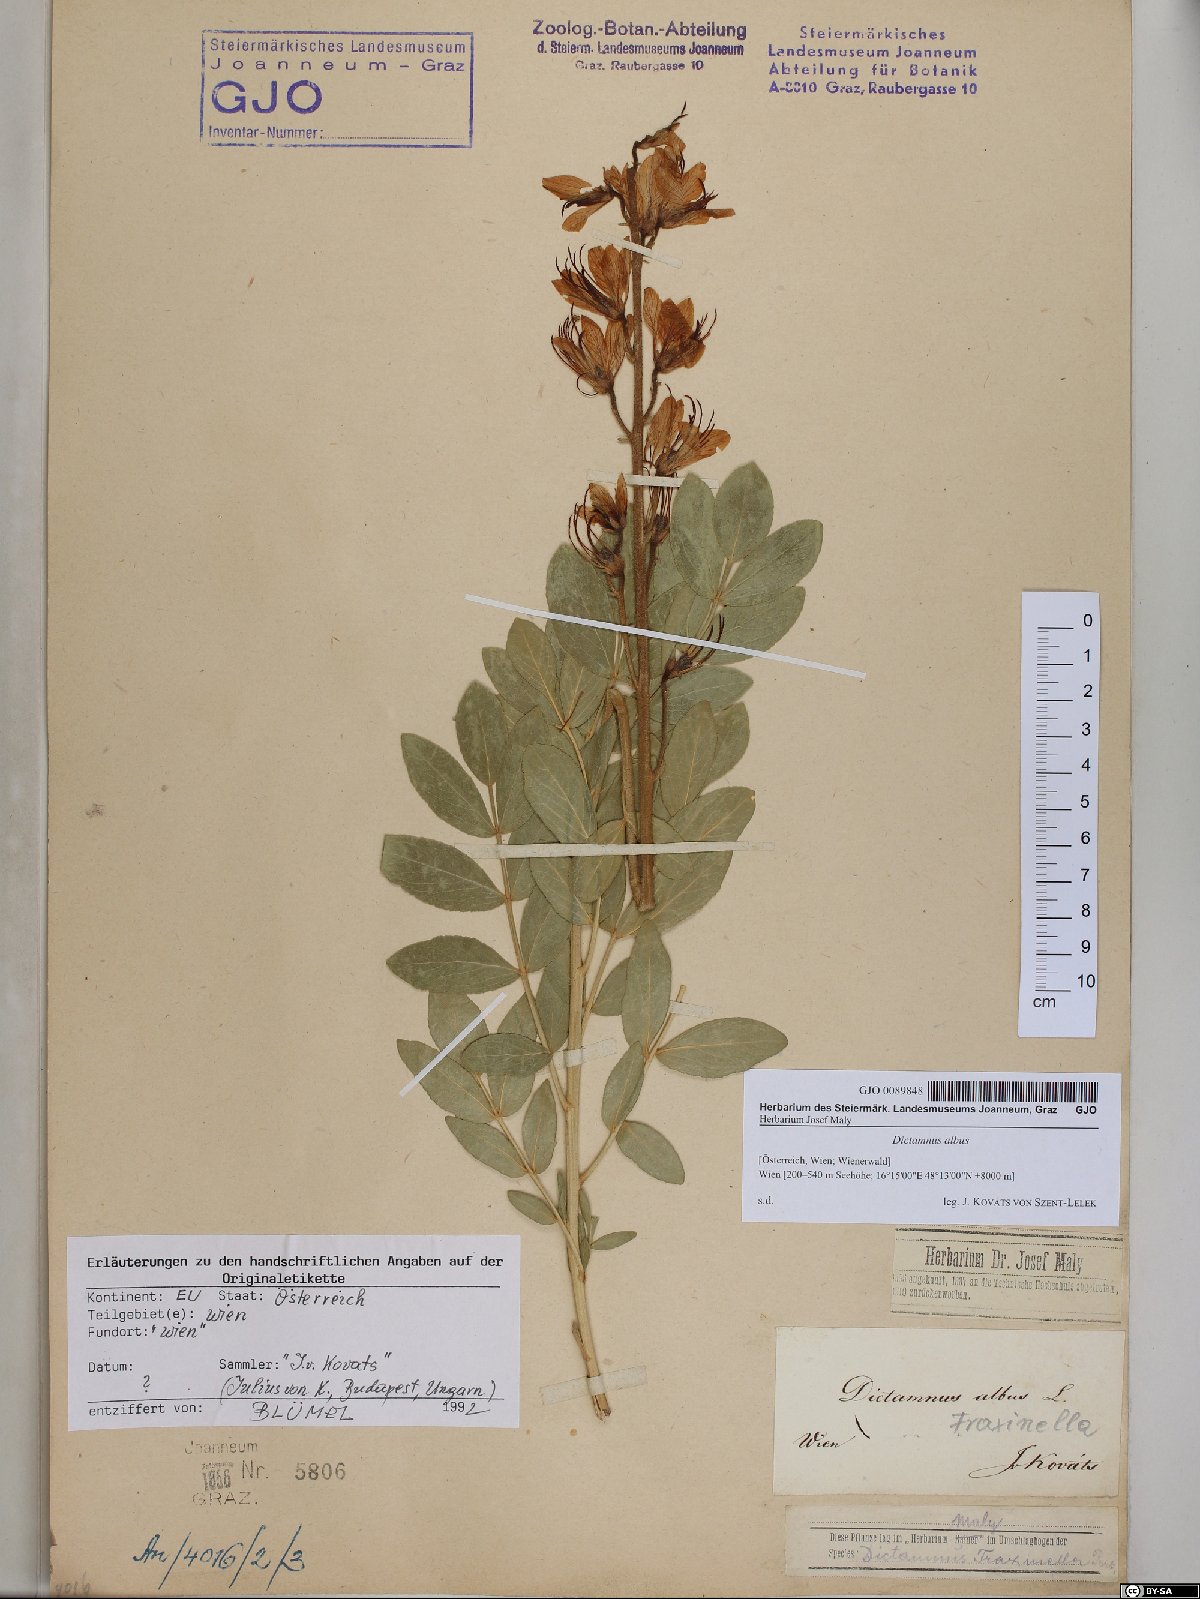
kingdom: Plantae
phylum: Tracheophyta
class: Magnoliopsida
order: Sapindales
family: Rutaceae
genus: Dictamnus
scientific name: Dictamnus albus
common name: Gasplant
